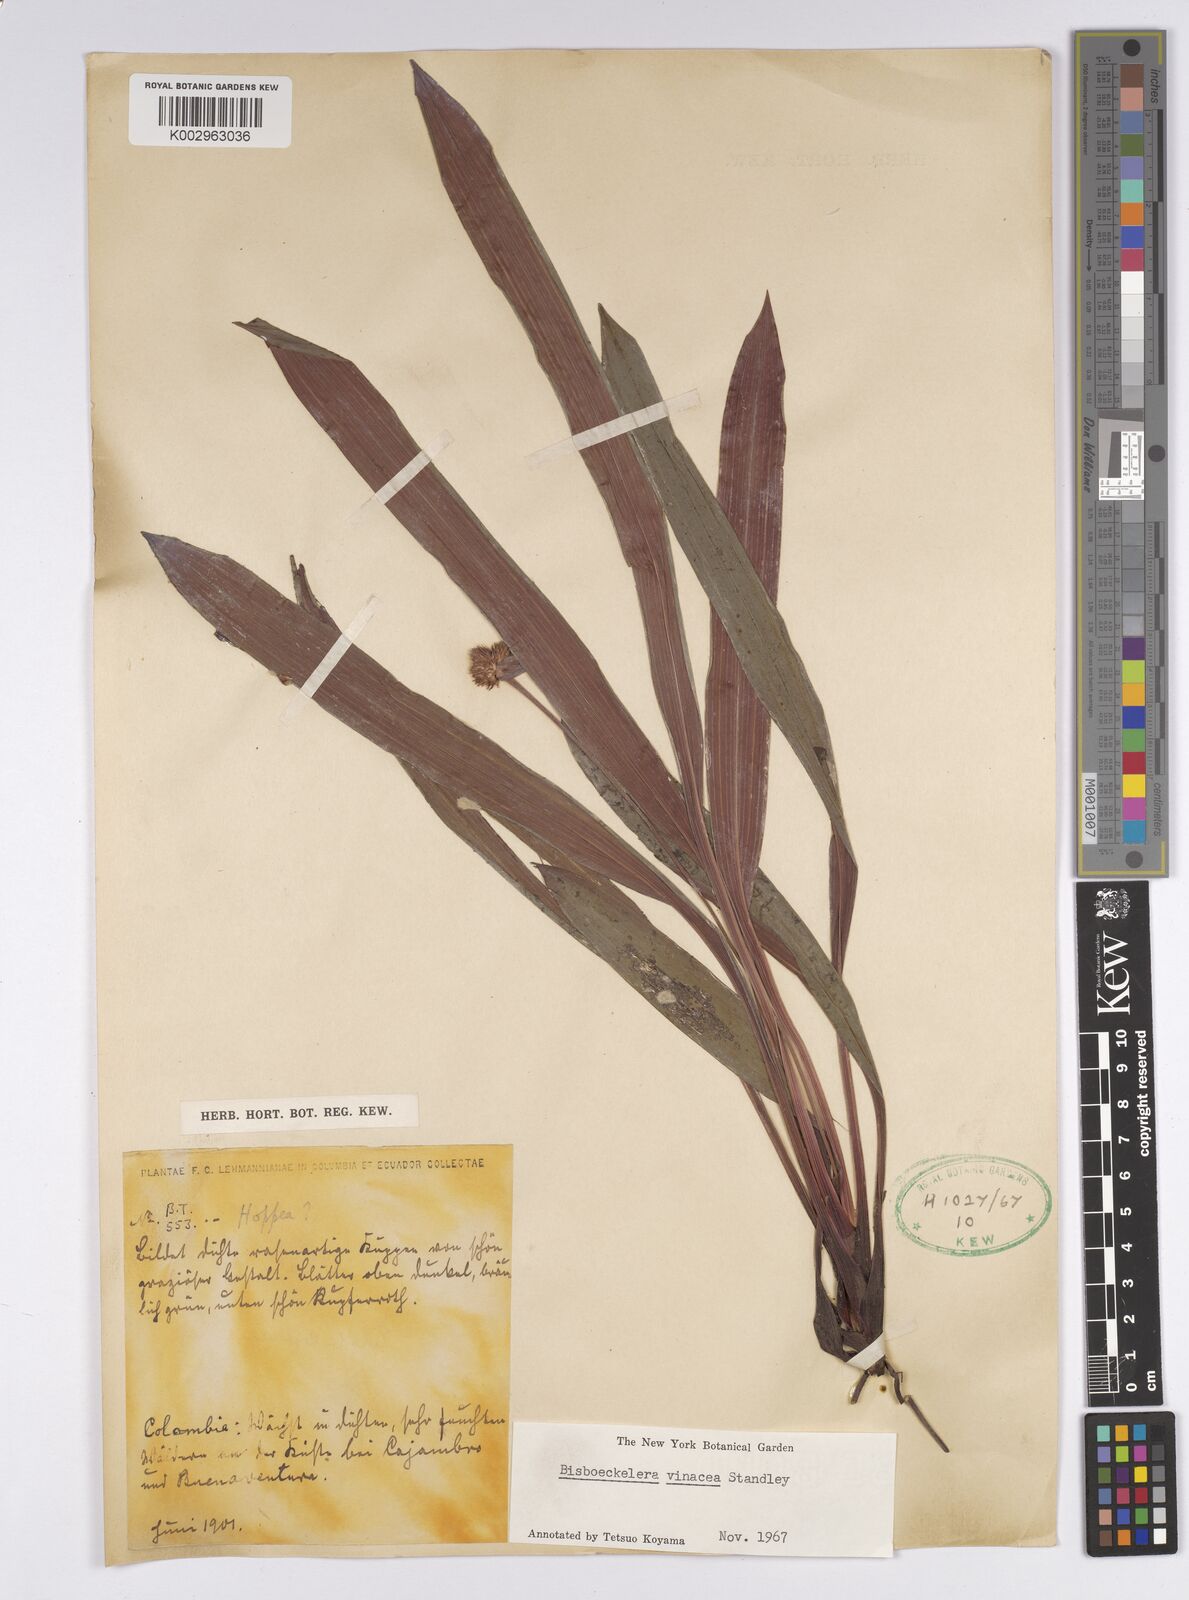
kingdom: Plantae
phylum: Tracheophyta
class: Liliopsida
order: Poales
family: Cyperaceae
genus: Bisboeckelera
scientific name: Bisboeckelera vinacea
